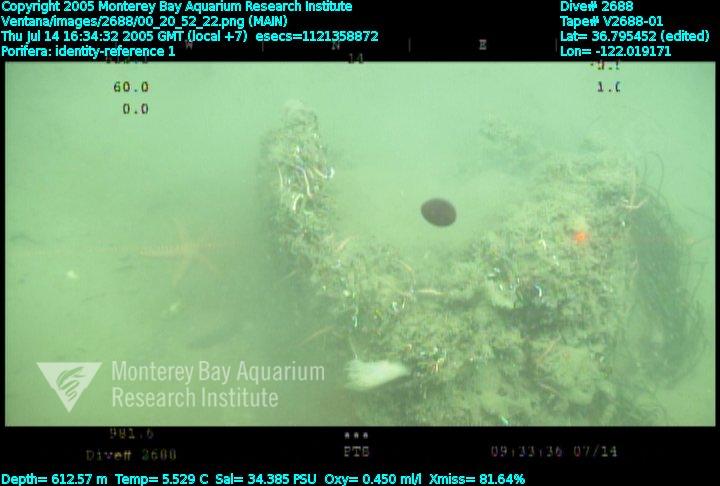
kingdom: Animalia
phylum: Porifera
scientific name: Porifera
